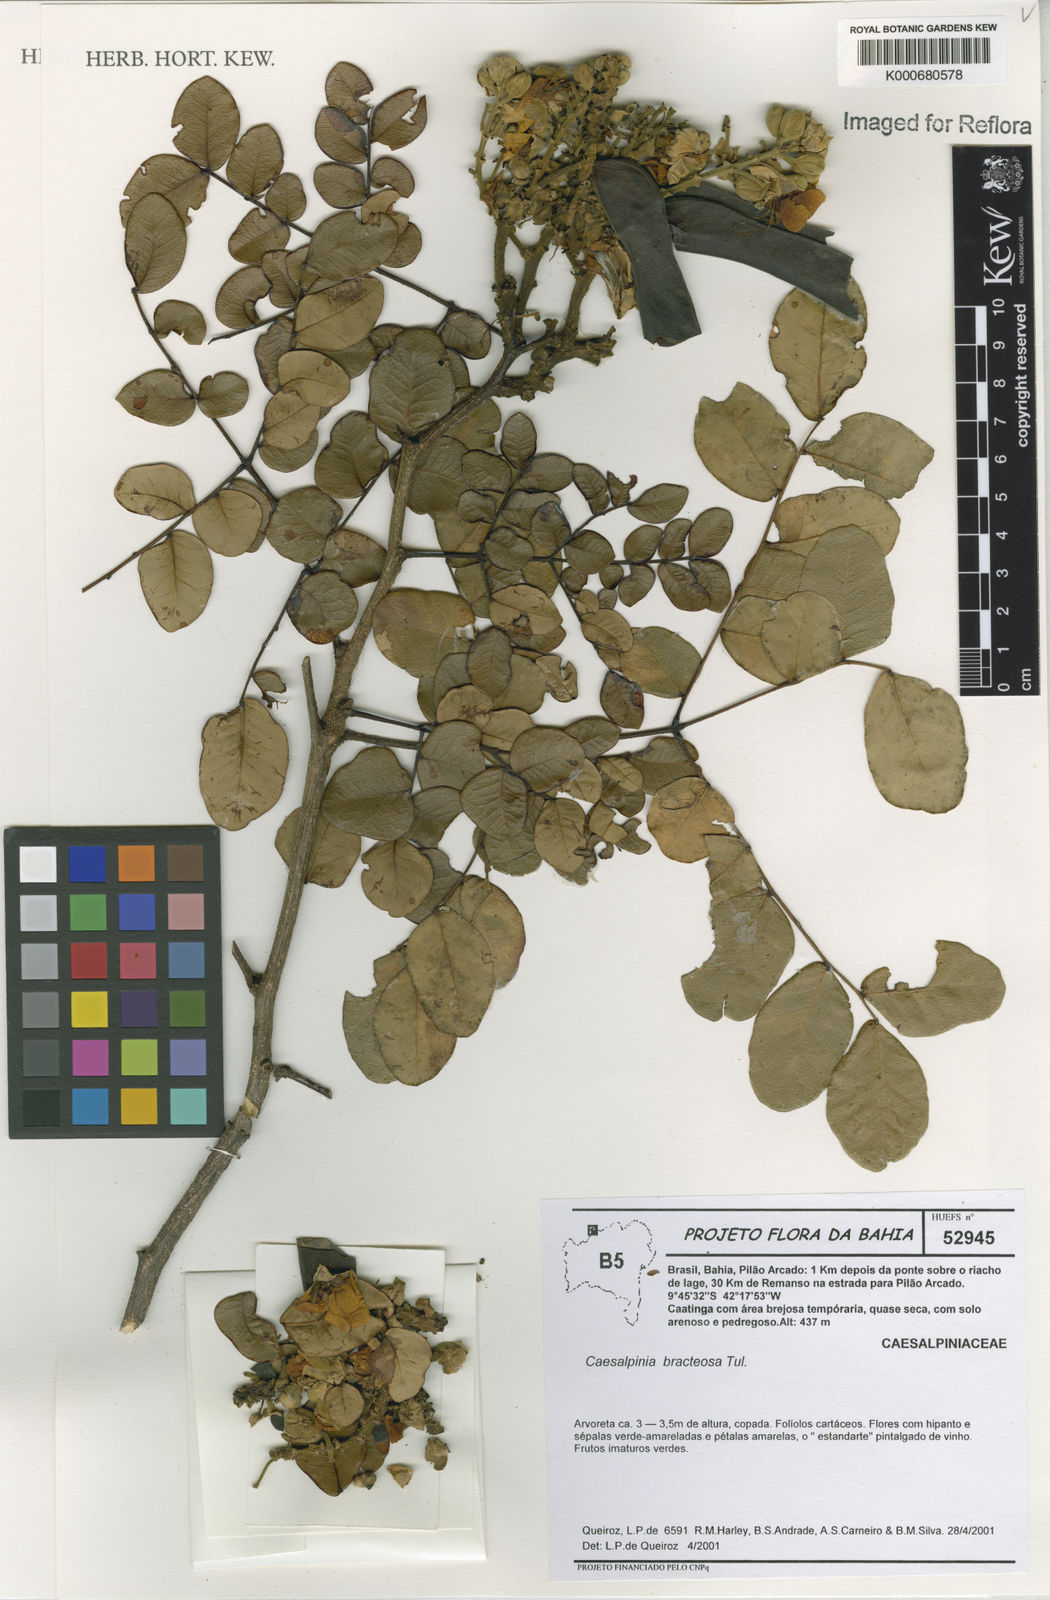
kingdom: Plantae
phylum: Tracheophyta
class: Magnoliopsida
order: Fabales
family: Fabaceae
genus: Cenostigma
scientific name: Cenostigma bracteosum
